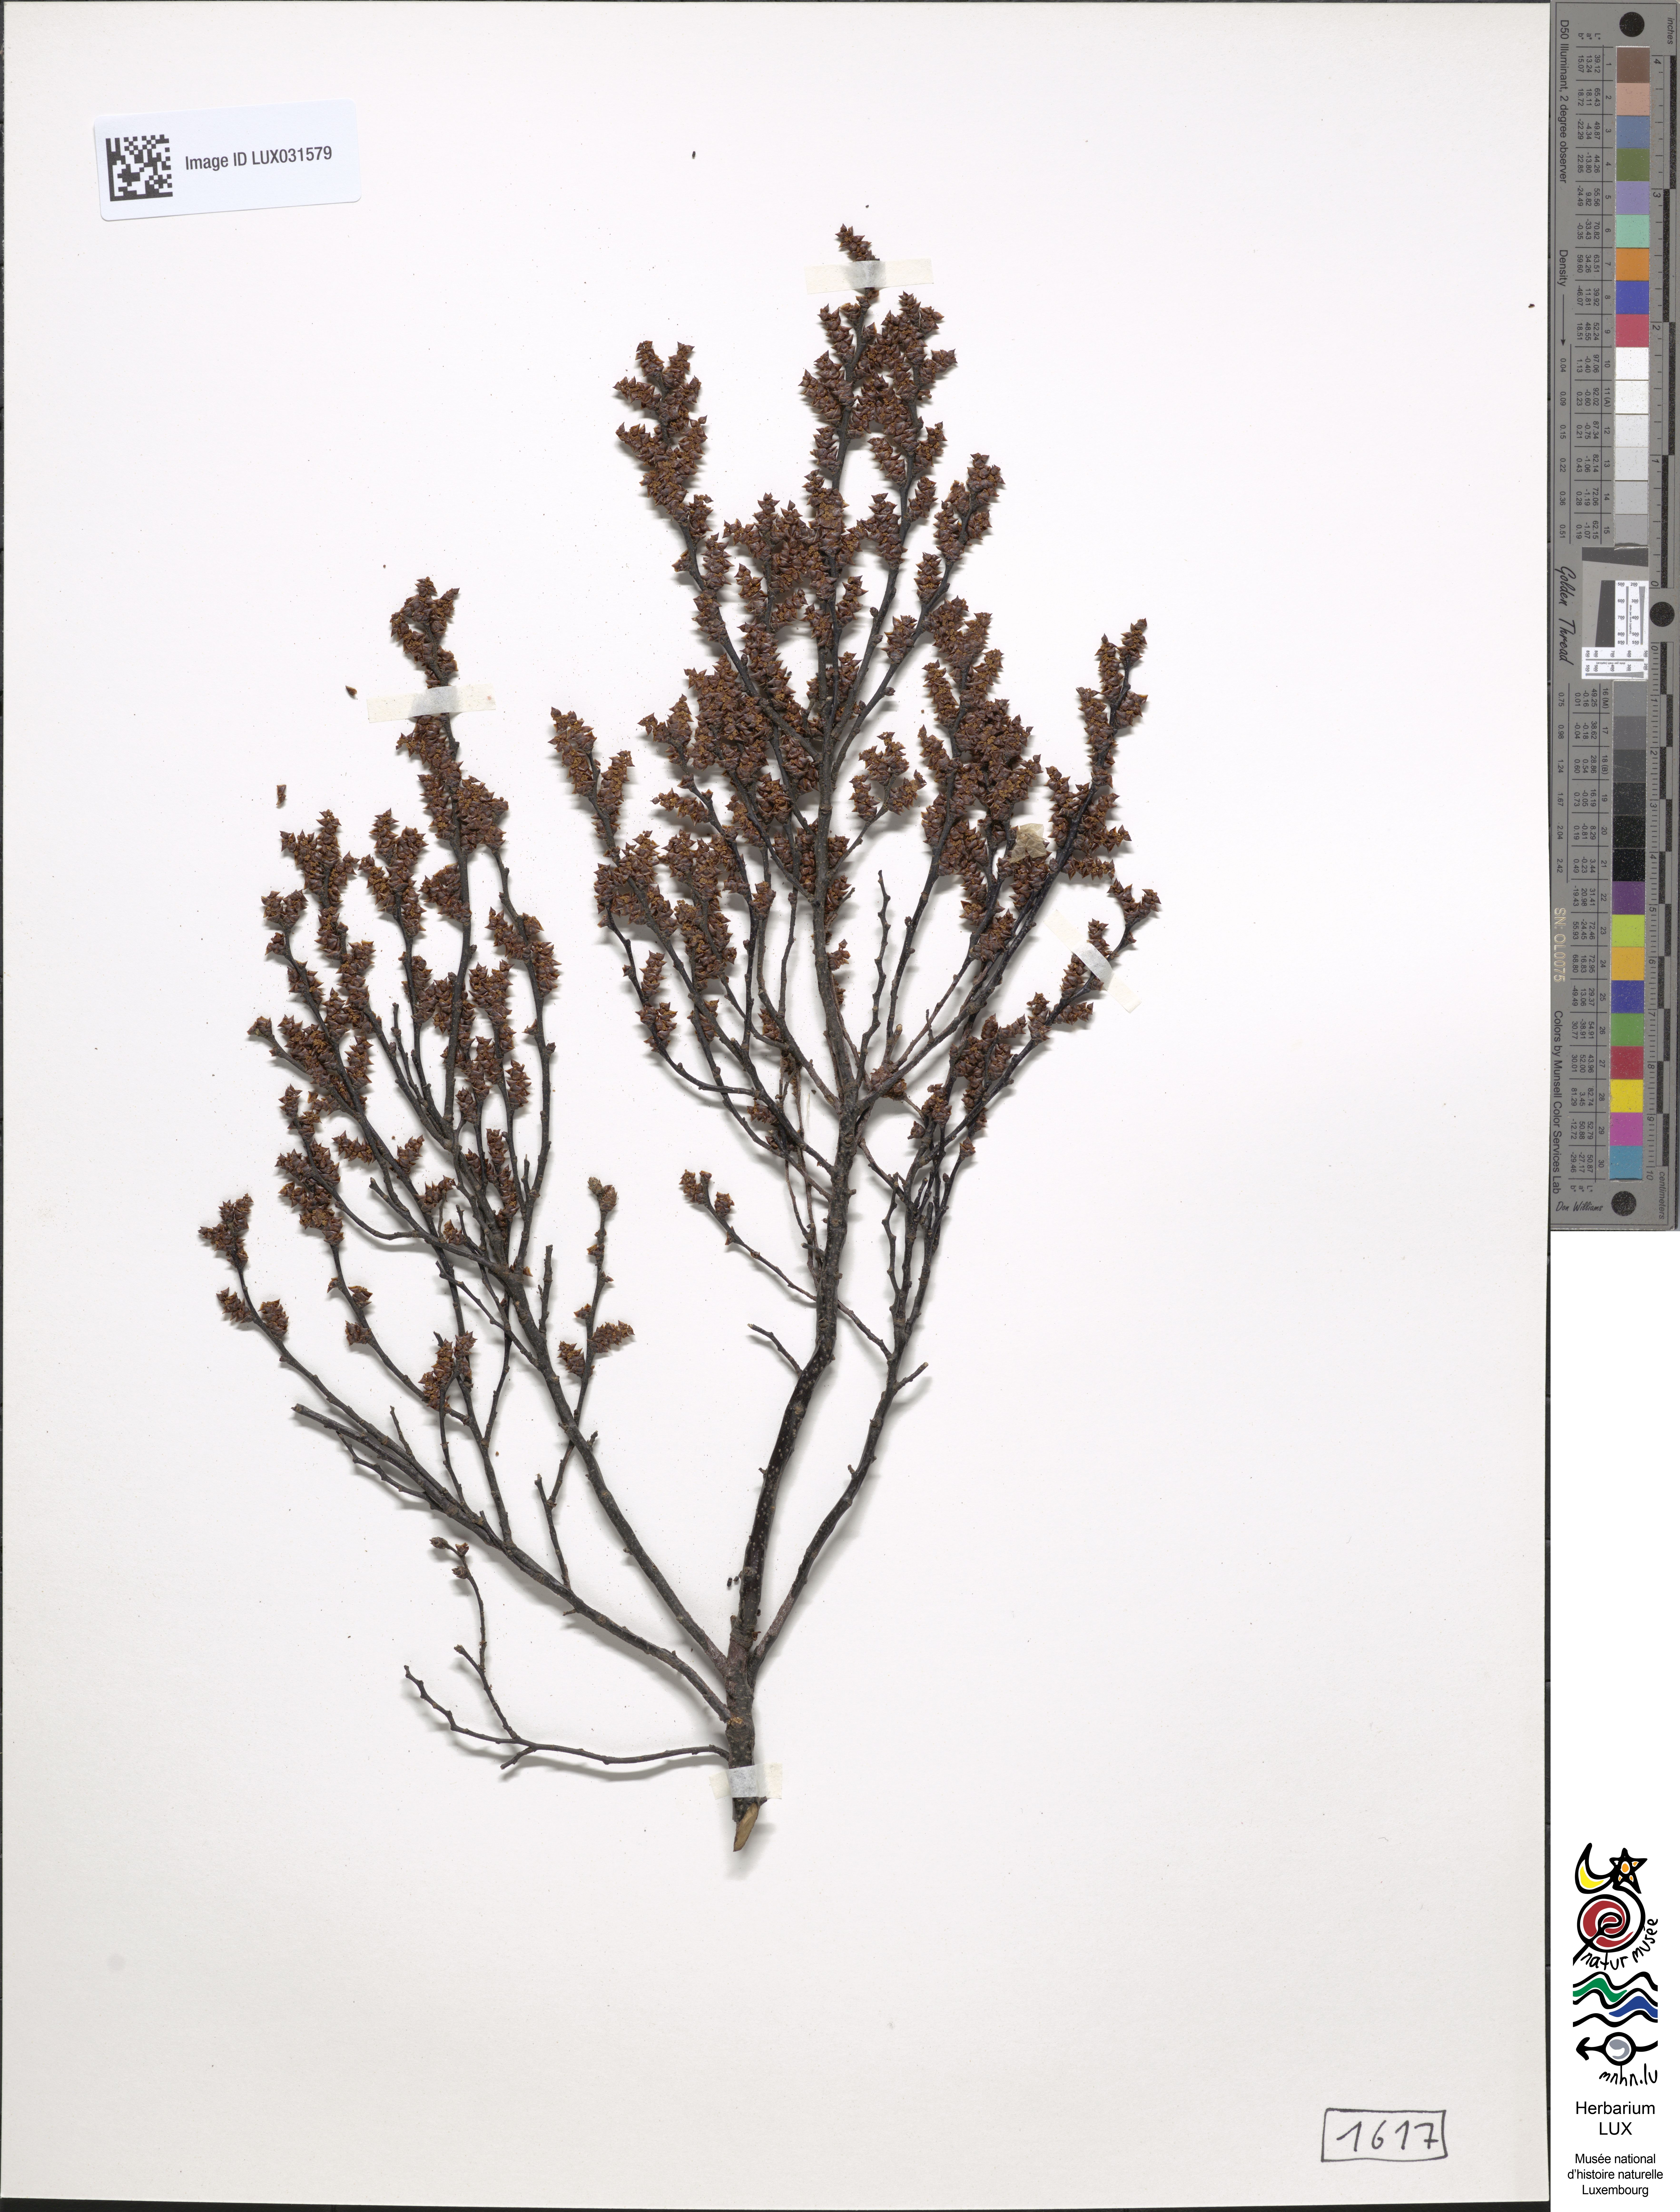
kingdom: Plantae
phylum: Tracheophyta
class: Magnoliopsida
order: Fagales
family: Myricaceae
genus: Myrica
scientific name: Myrica gale
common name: Sweet gale
